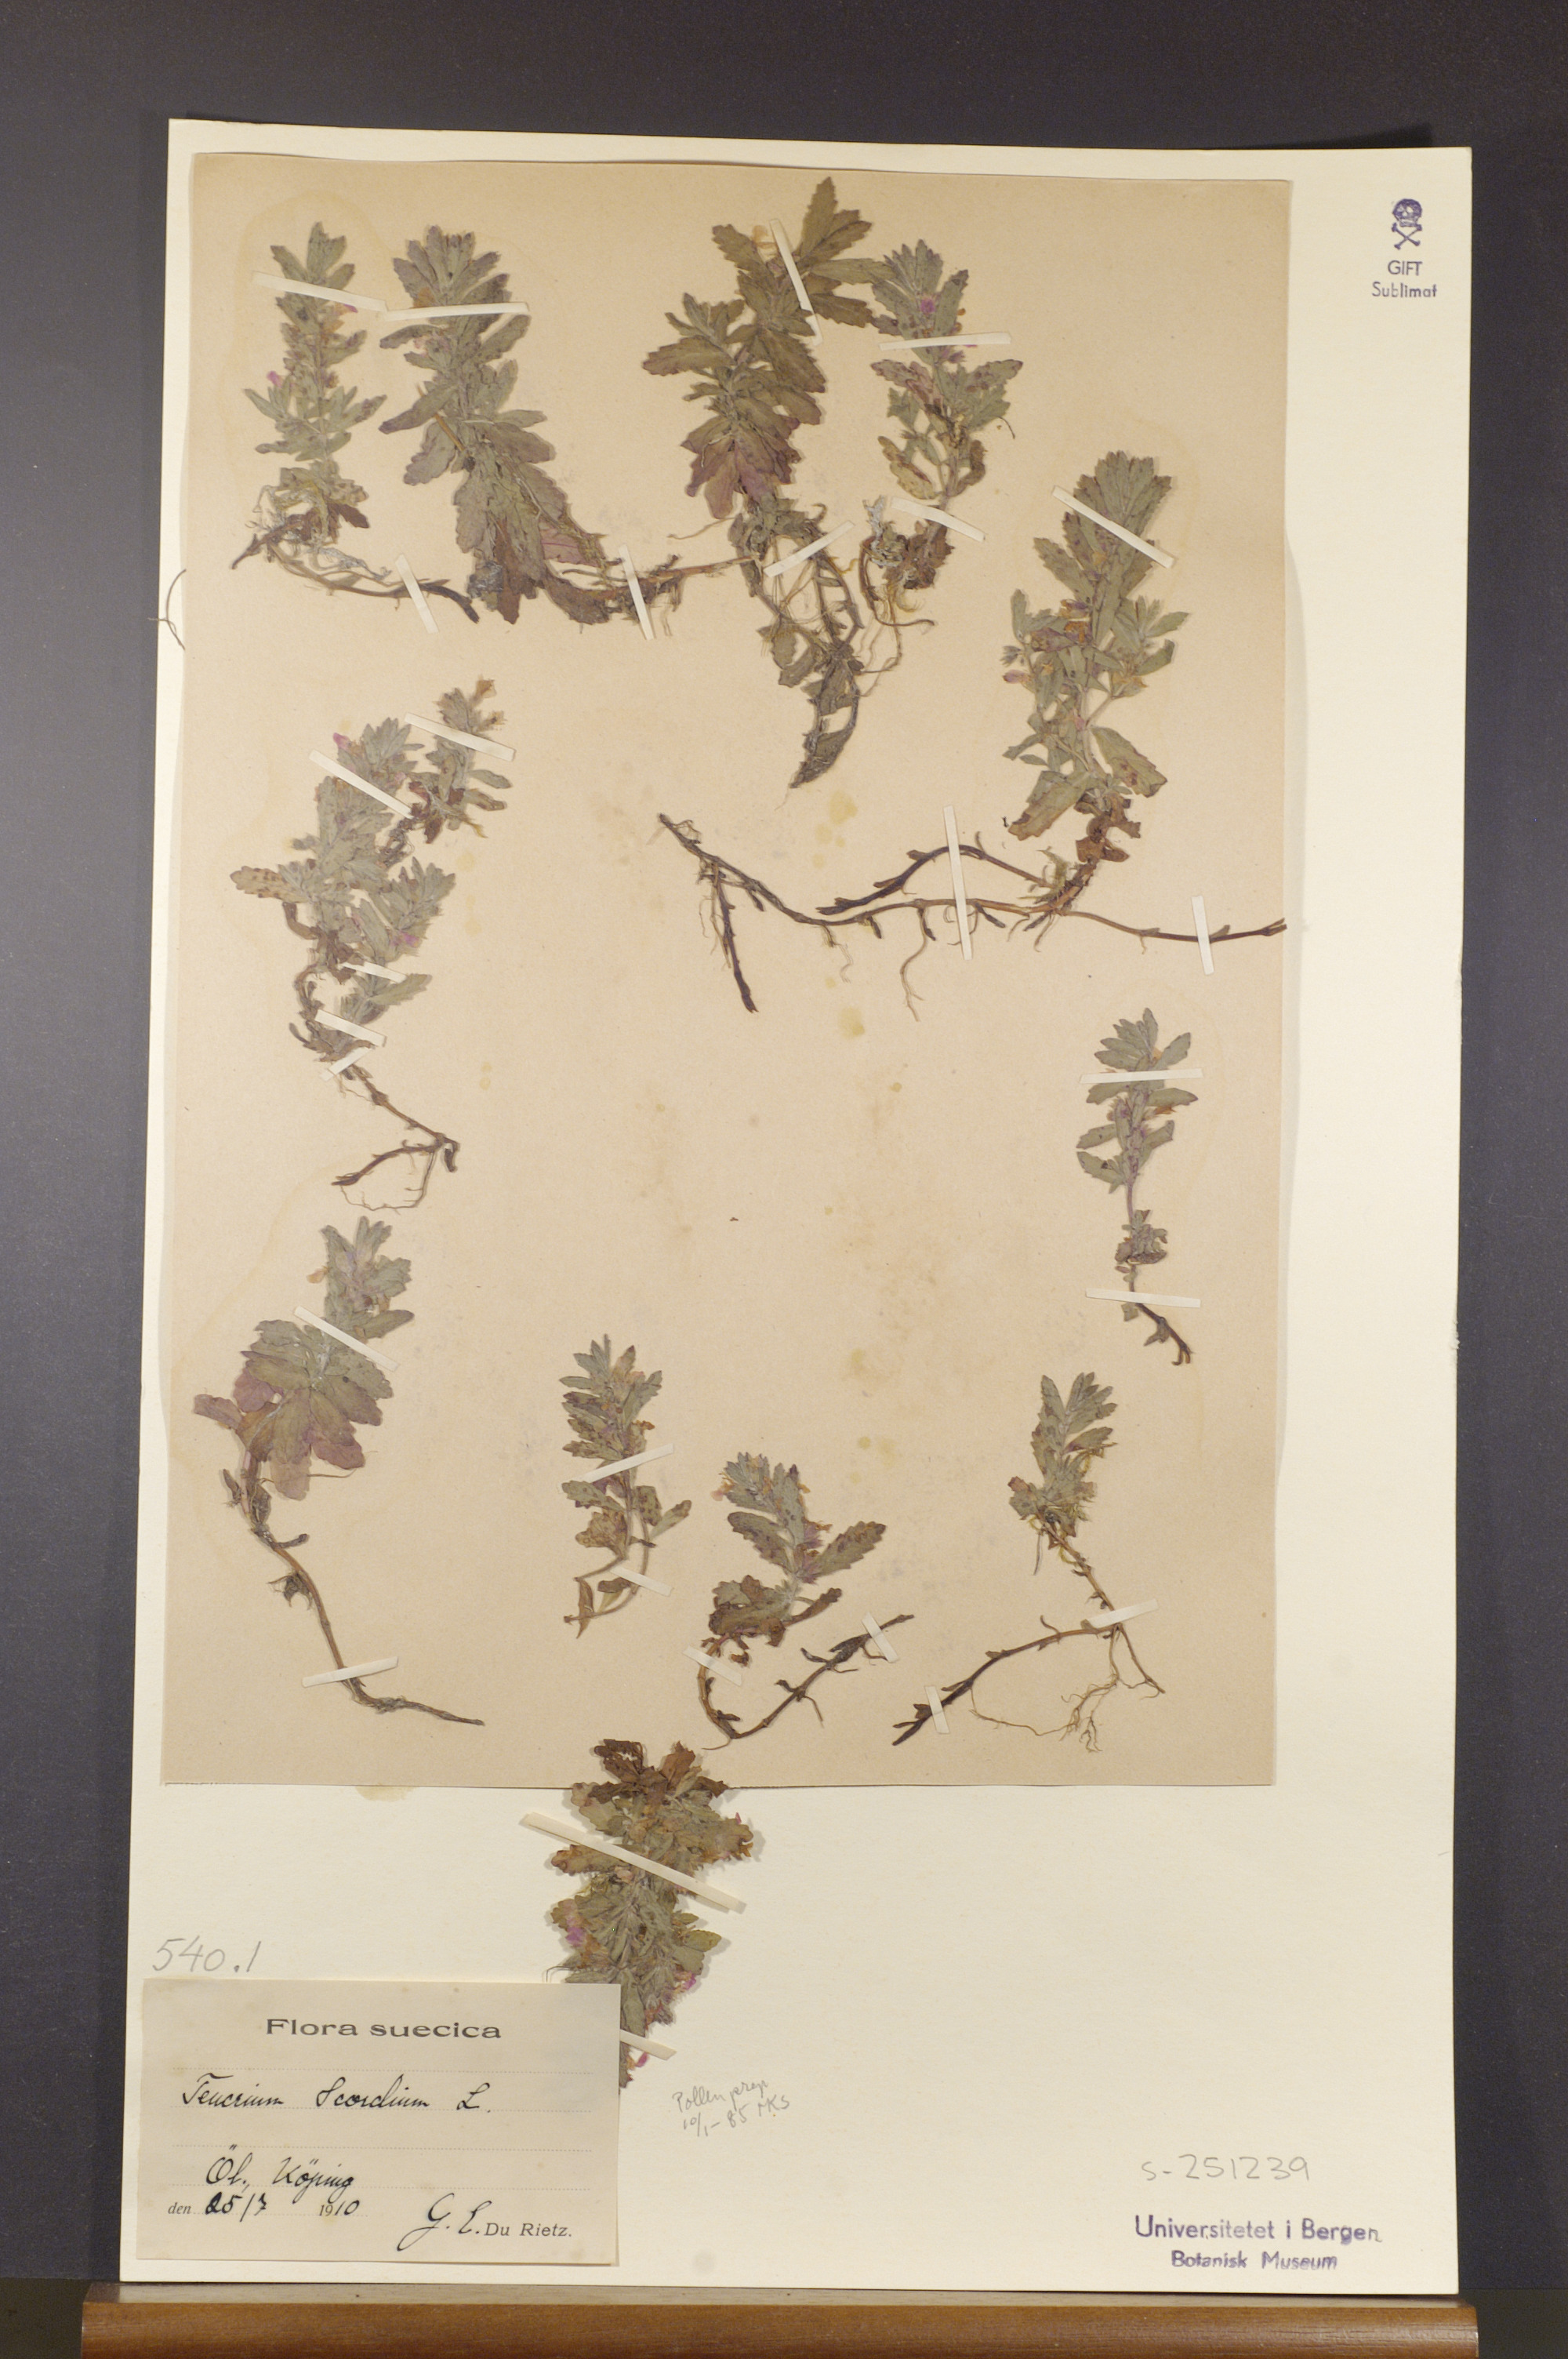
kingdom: Plantae
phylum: Tracheophyta
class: Magnoliopsida
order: Lamiales
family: Lamiaceae
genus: Teucrium
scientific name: Teucrium scordium
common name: Water germander
